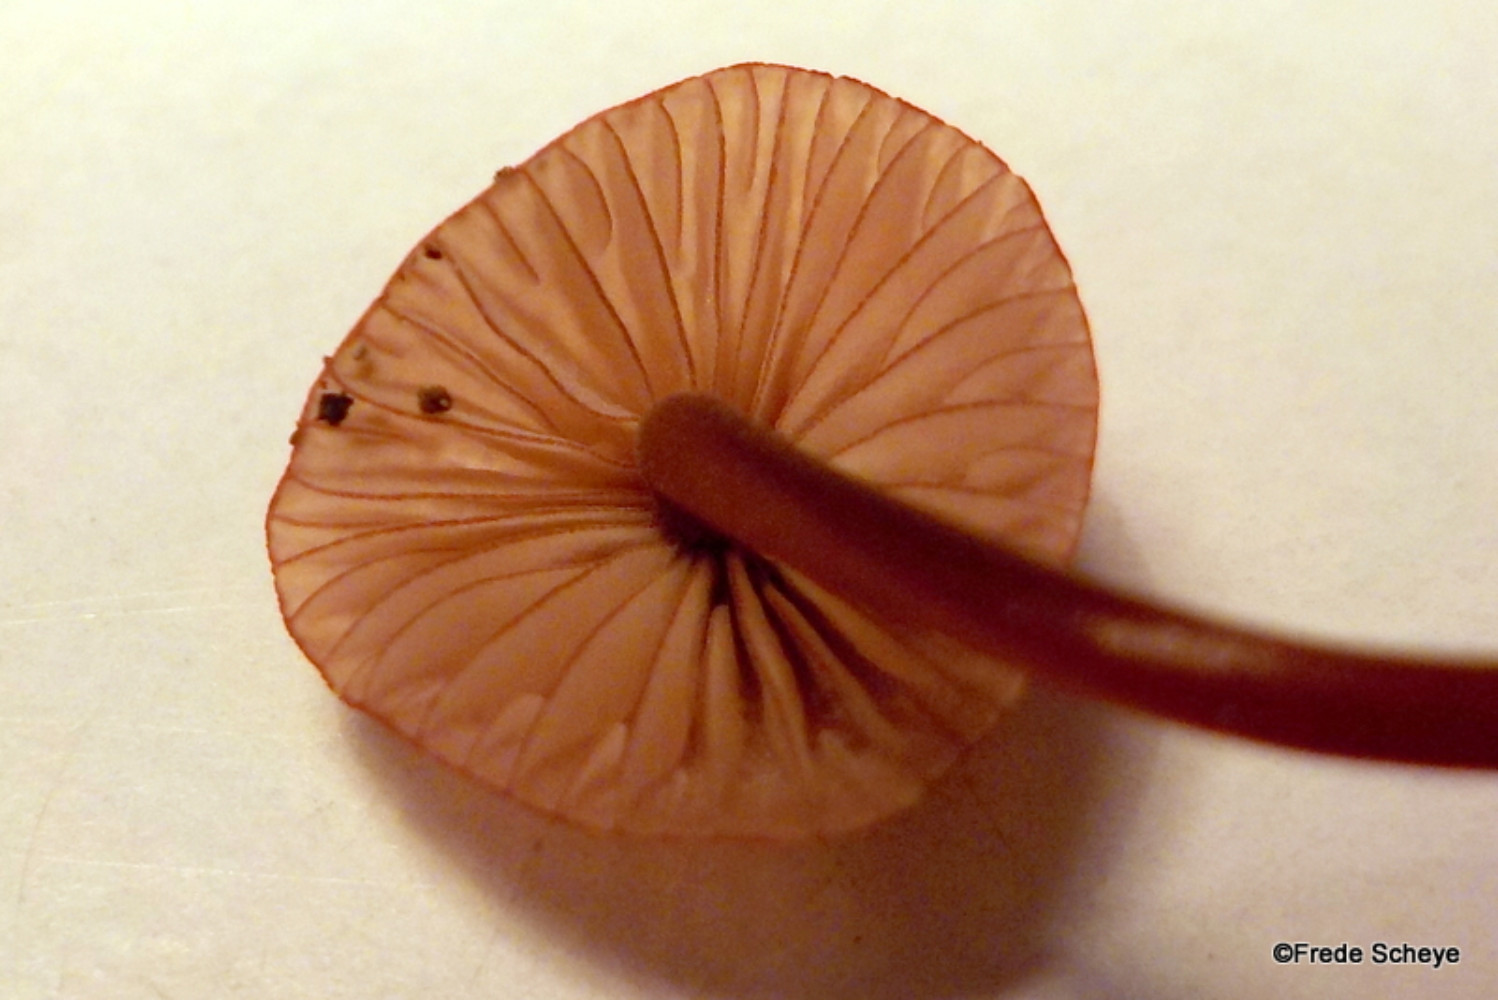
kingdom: Fungi
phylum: Basidiomycota
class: Agaricomycetes
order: Agaricales
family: Mycenaceae
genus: Mycena
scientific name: Mycena sanguinolenta
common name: rødmælket huesvamp
